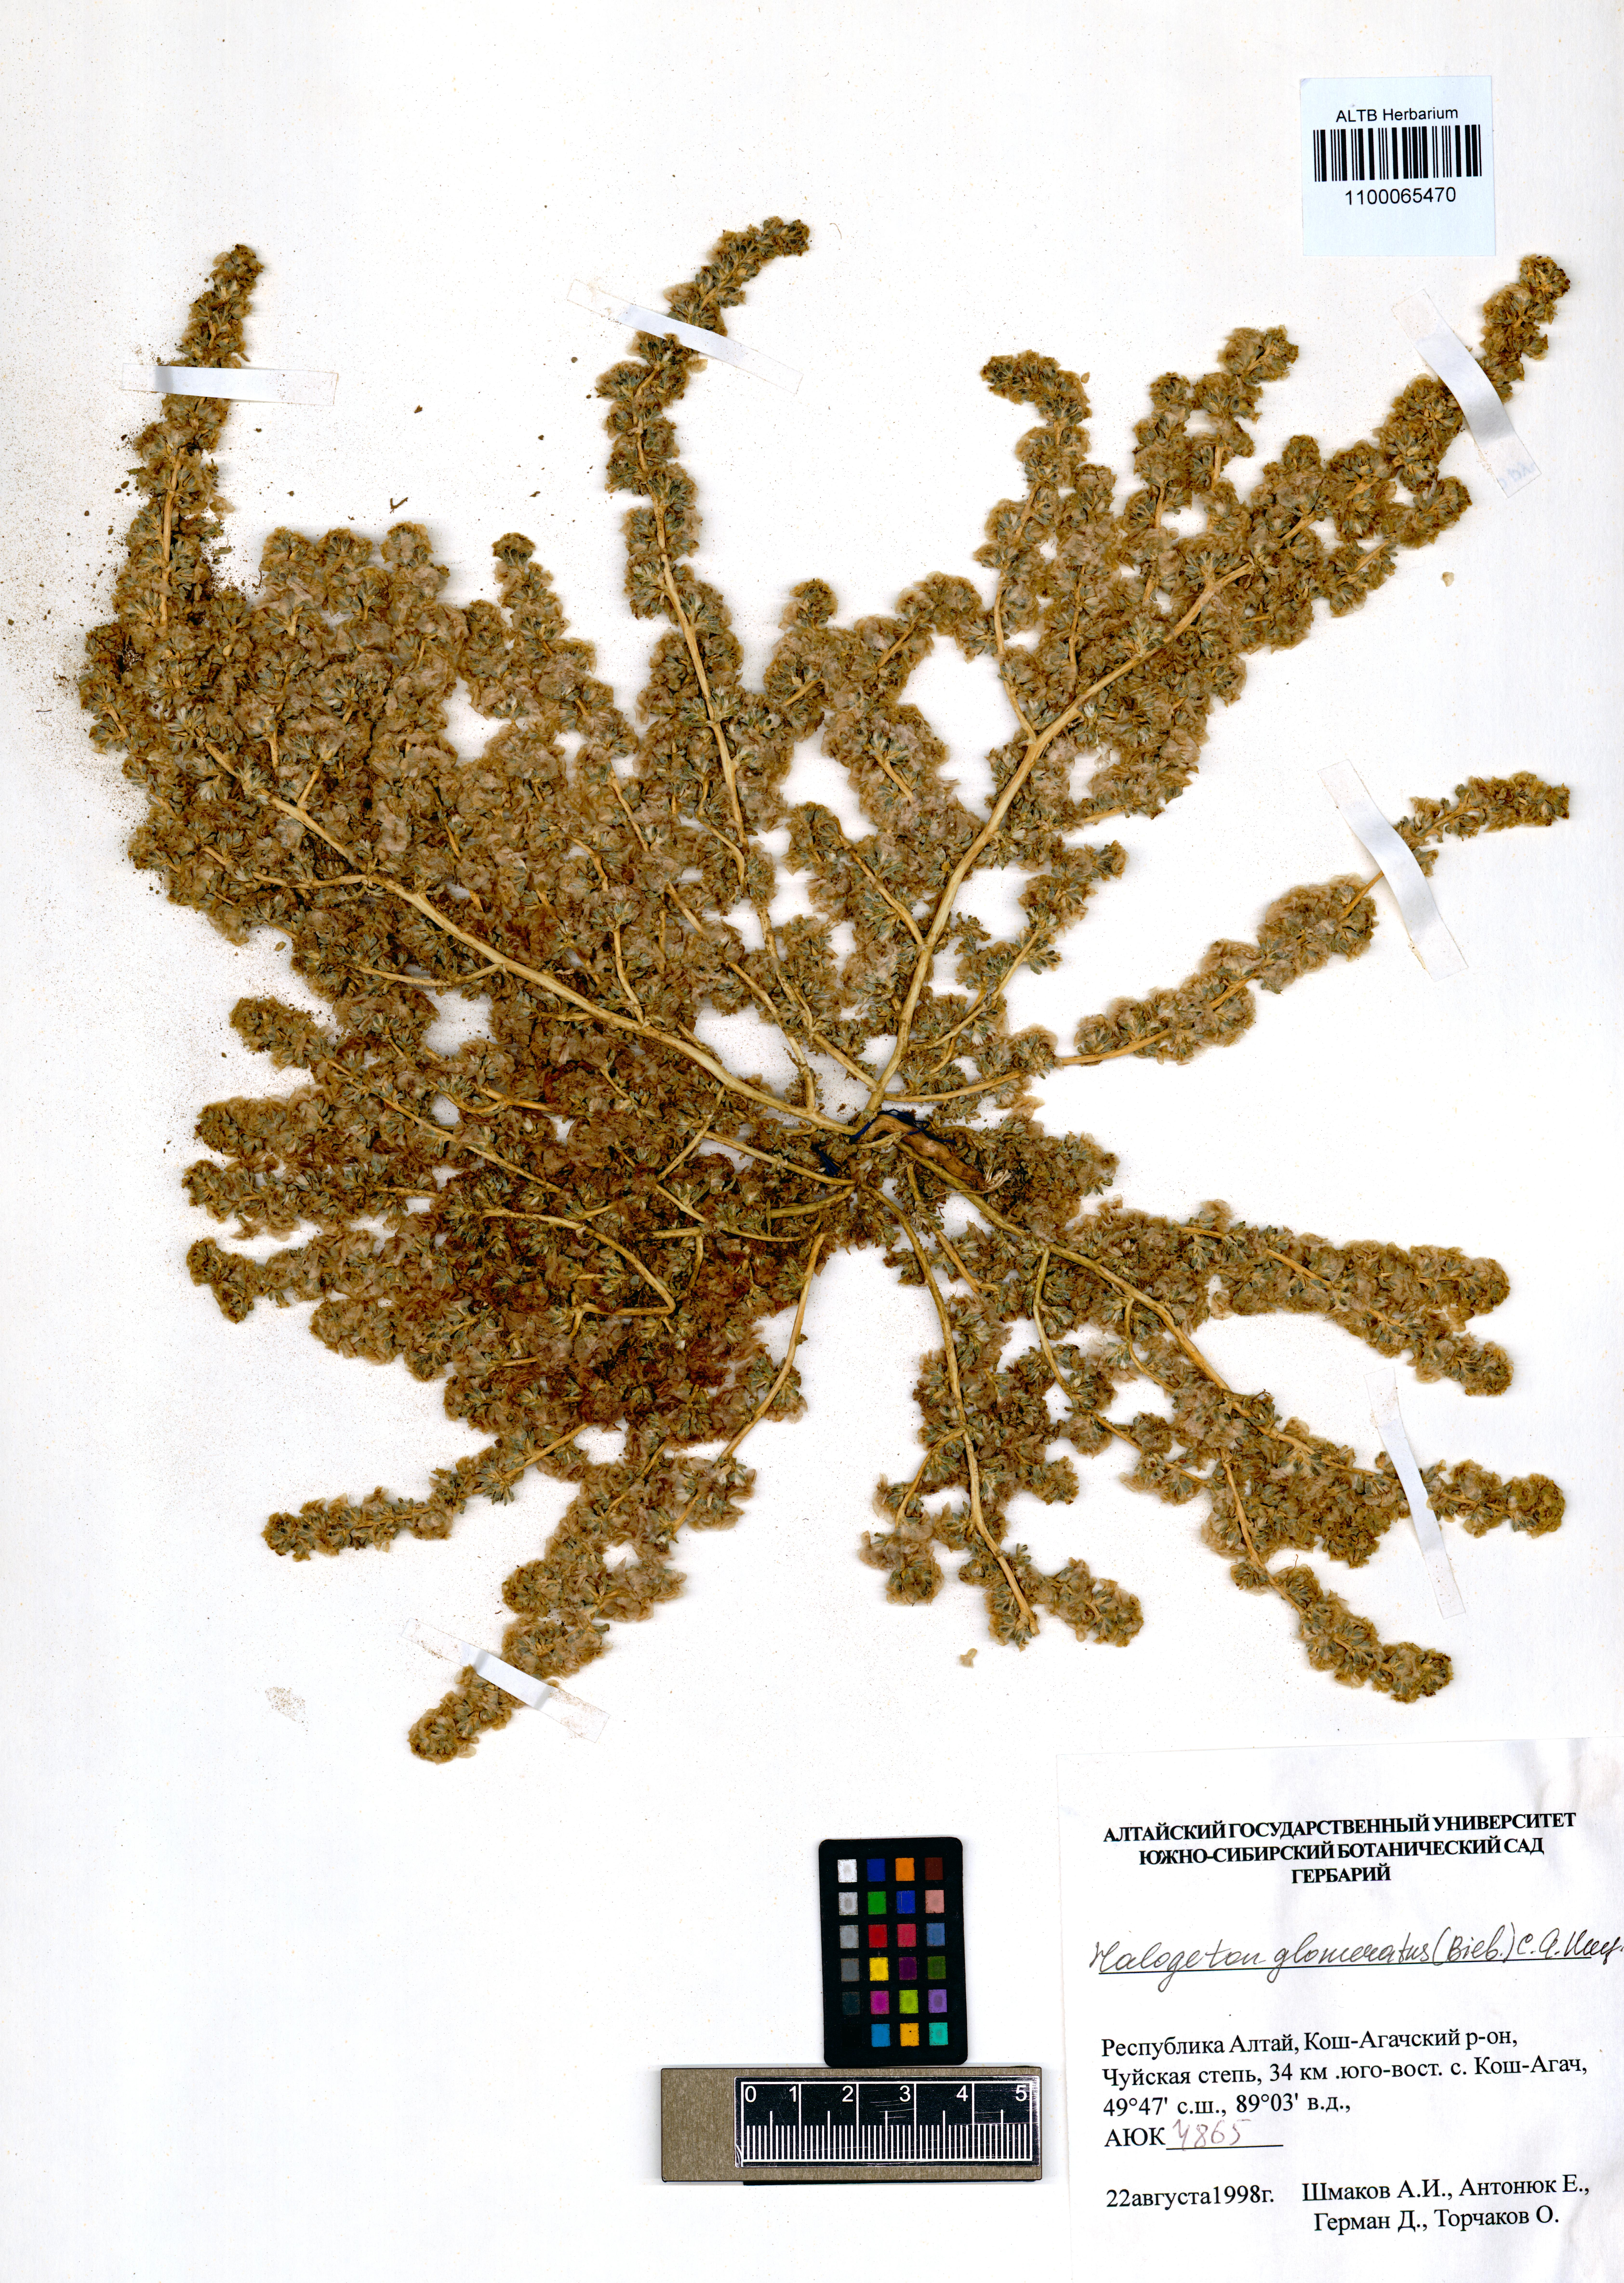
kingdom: Plantae
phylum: Tracheophyta
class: Magnoliopsida
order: Caryophyllales
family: Amaranthaceae
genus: Halogeton
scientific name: Halogeton glomeratus
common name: Saltlover
